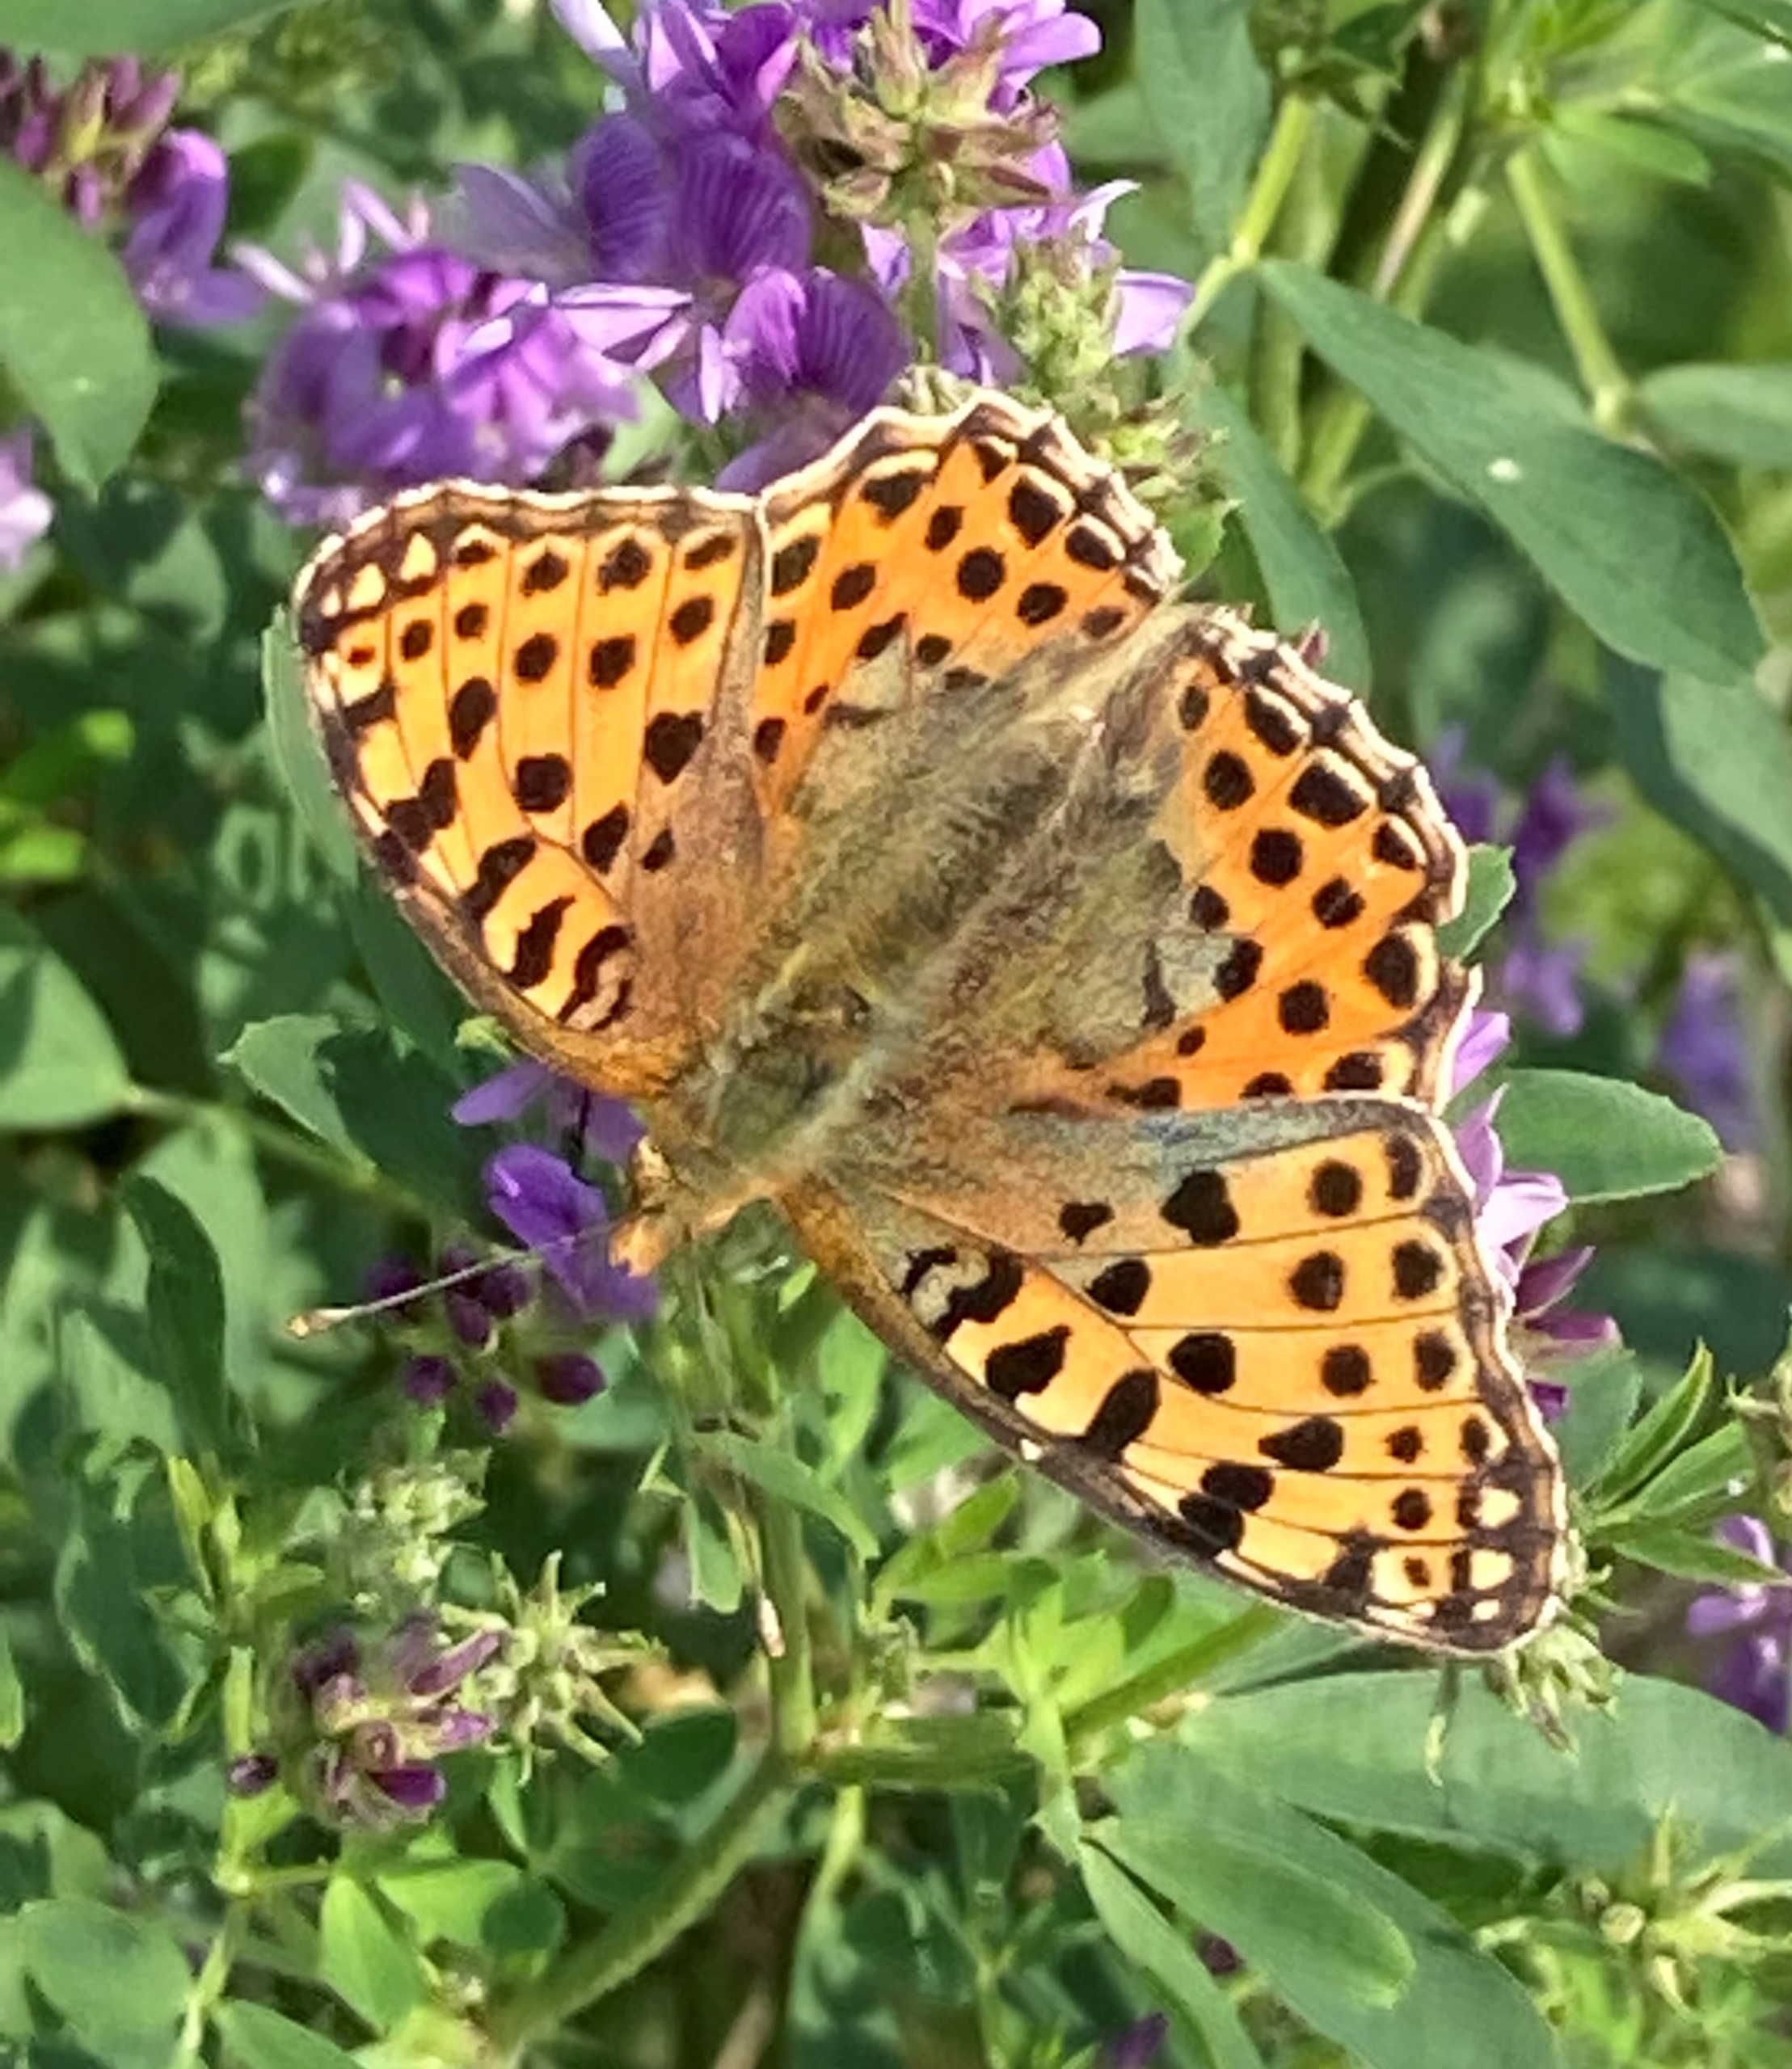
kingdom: Animalia
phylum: Arthropoda
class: Insecta
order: Lepidoptera
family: Nymphalidae
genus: Issoria
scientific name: Issoria lathonia
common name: Storplettet perlemorsommerfugl
